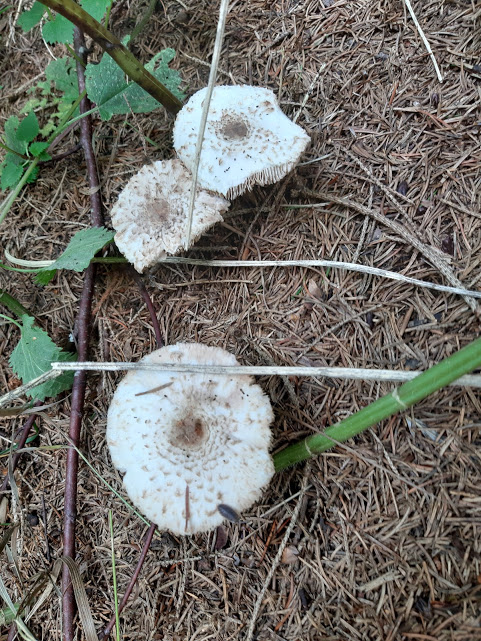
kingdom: Fungi
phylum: Basidiomycota
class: Agaricomycetes
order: Agaricales
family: Agaricaceae
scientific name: Agaricaceae
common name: champignonfamilien
